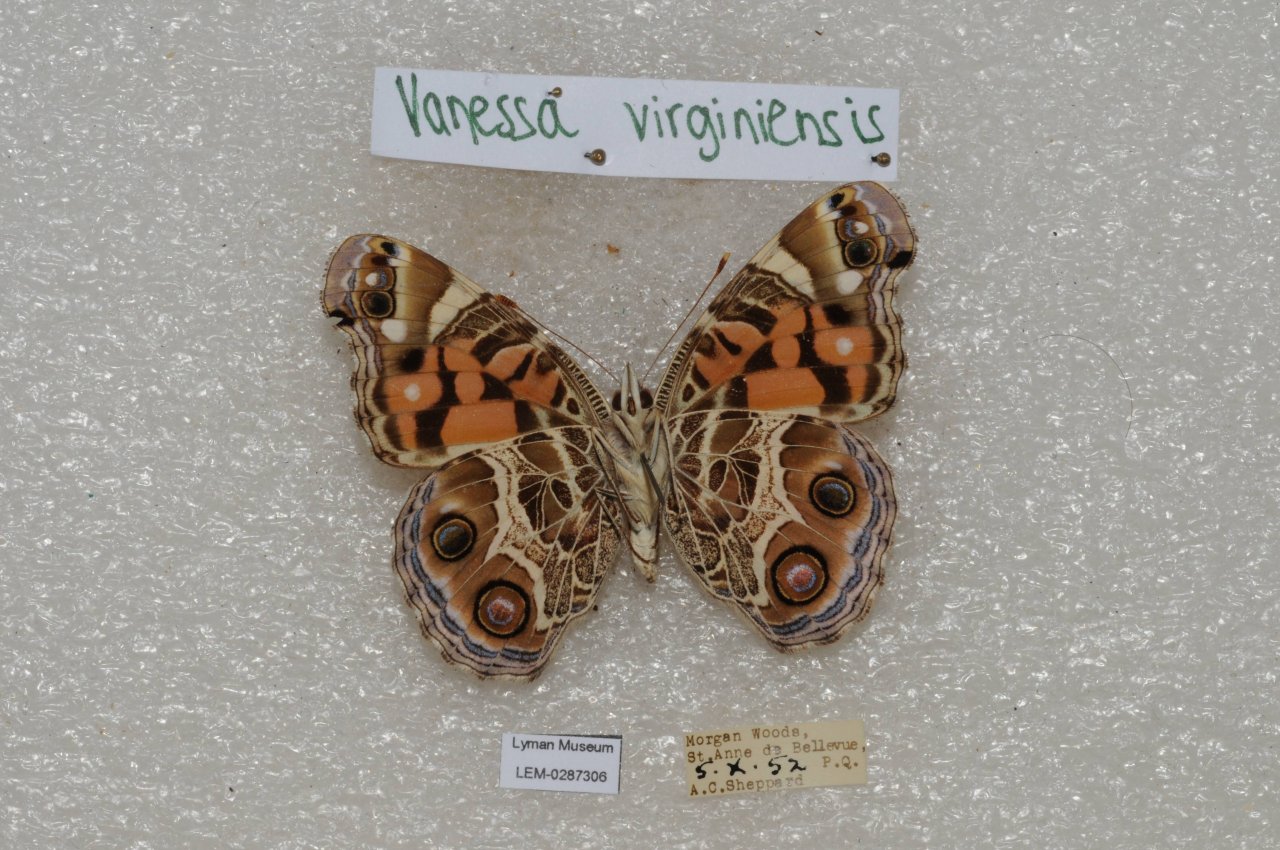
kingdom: Animalia
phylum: Arthropoda
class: Insecta
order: Lepidoptera
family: Nymphalidae
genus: Vanessa
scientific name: Vanessa virginiensis
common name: American Lady
